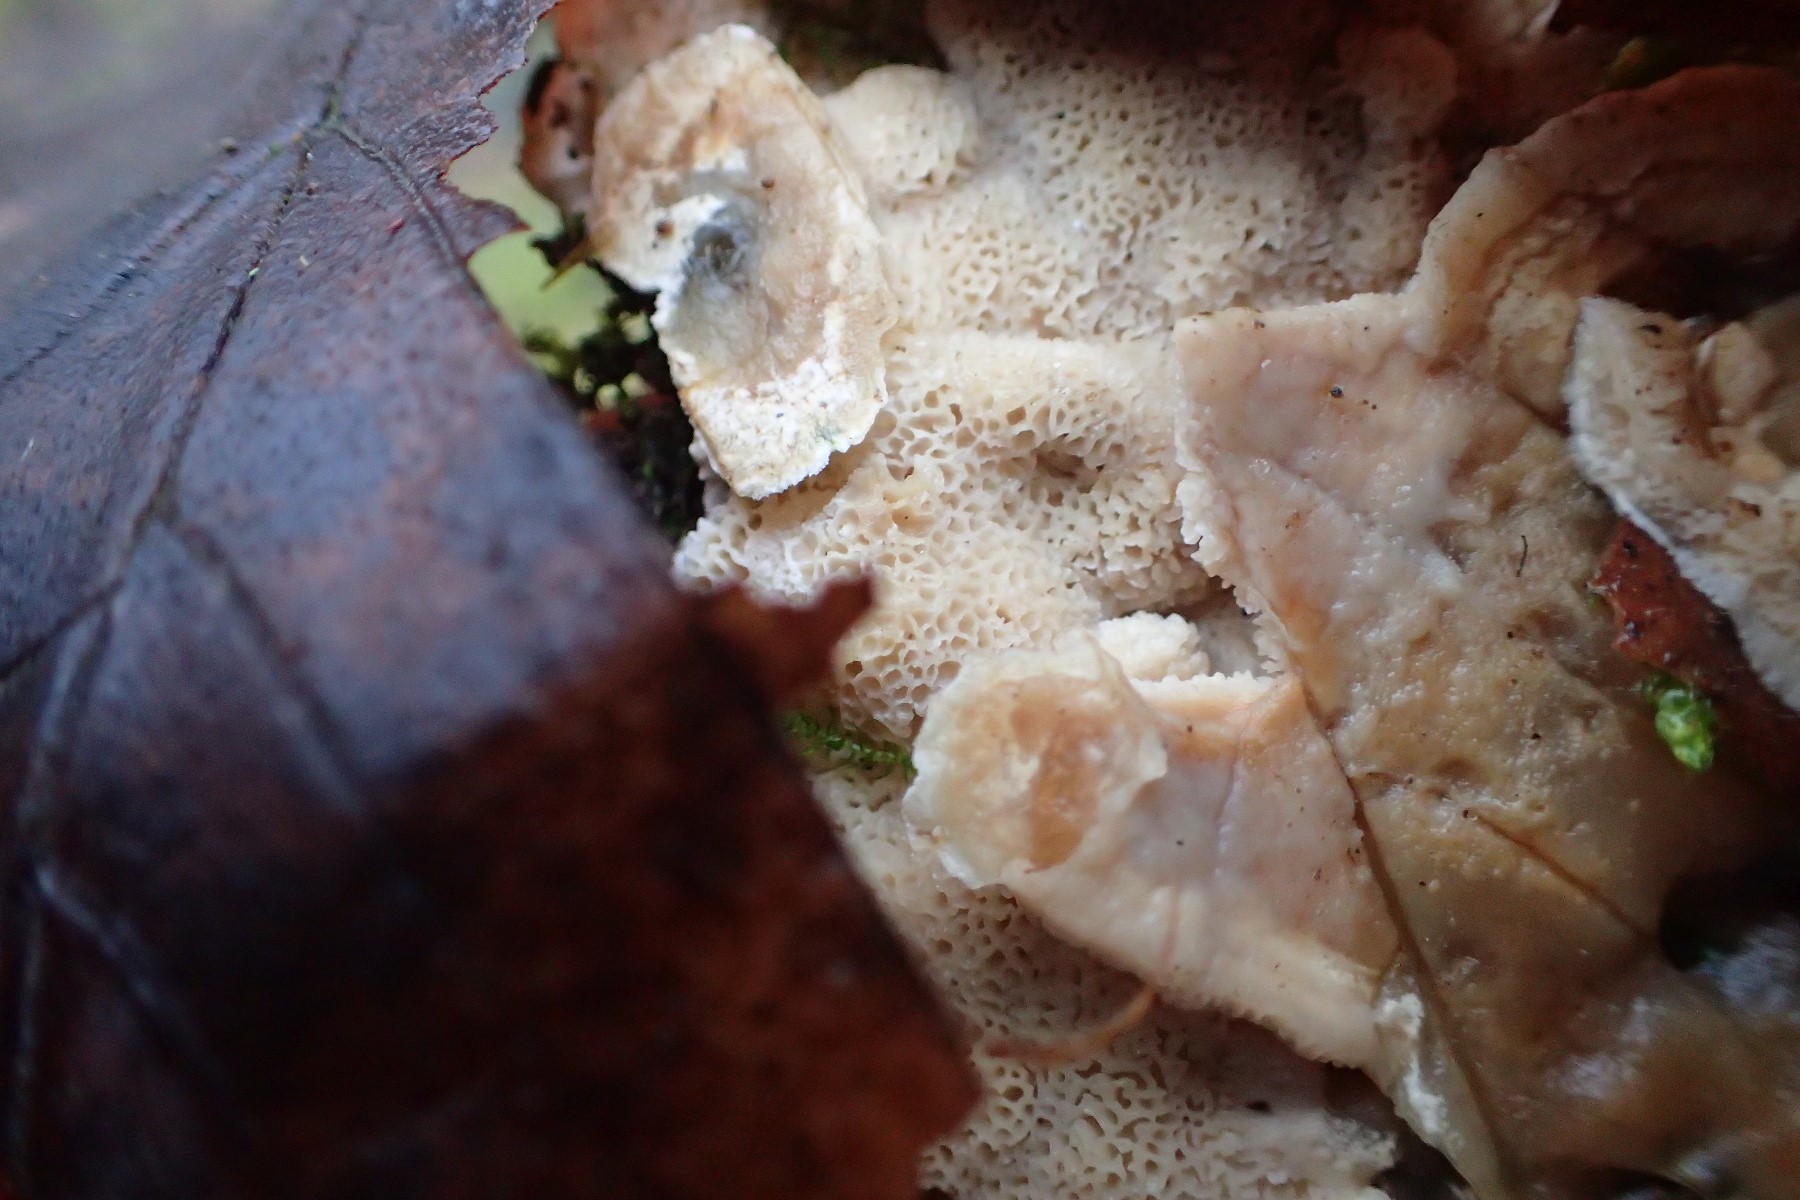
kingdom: Fungi
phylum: Basidiomycota
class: Agaricomycetes
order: Polyporales
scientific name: Polyporales
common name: poresvampordenen
